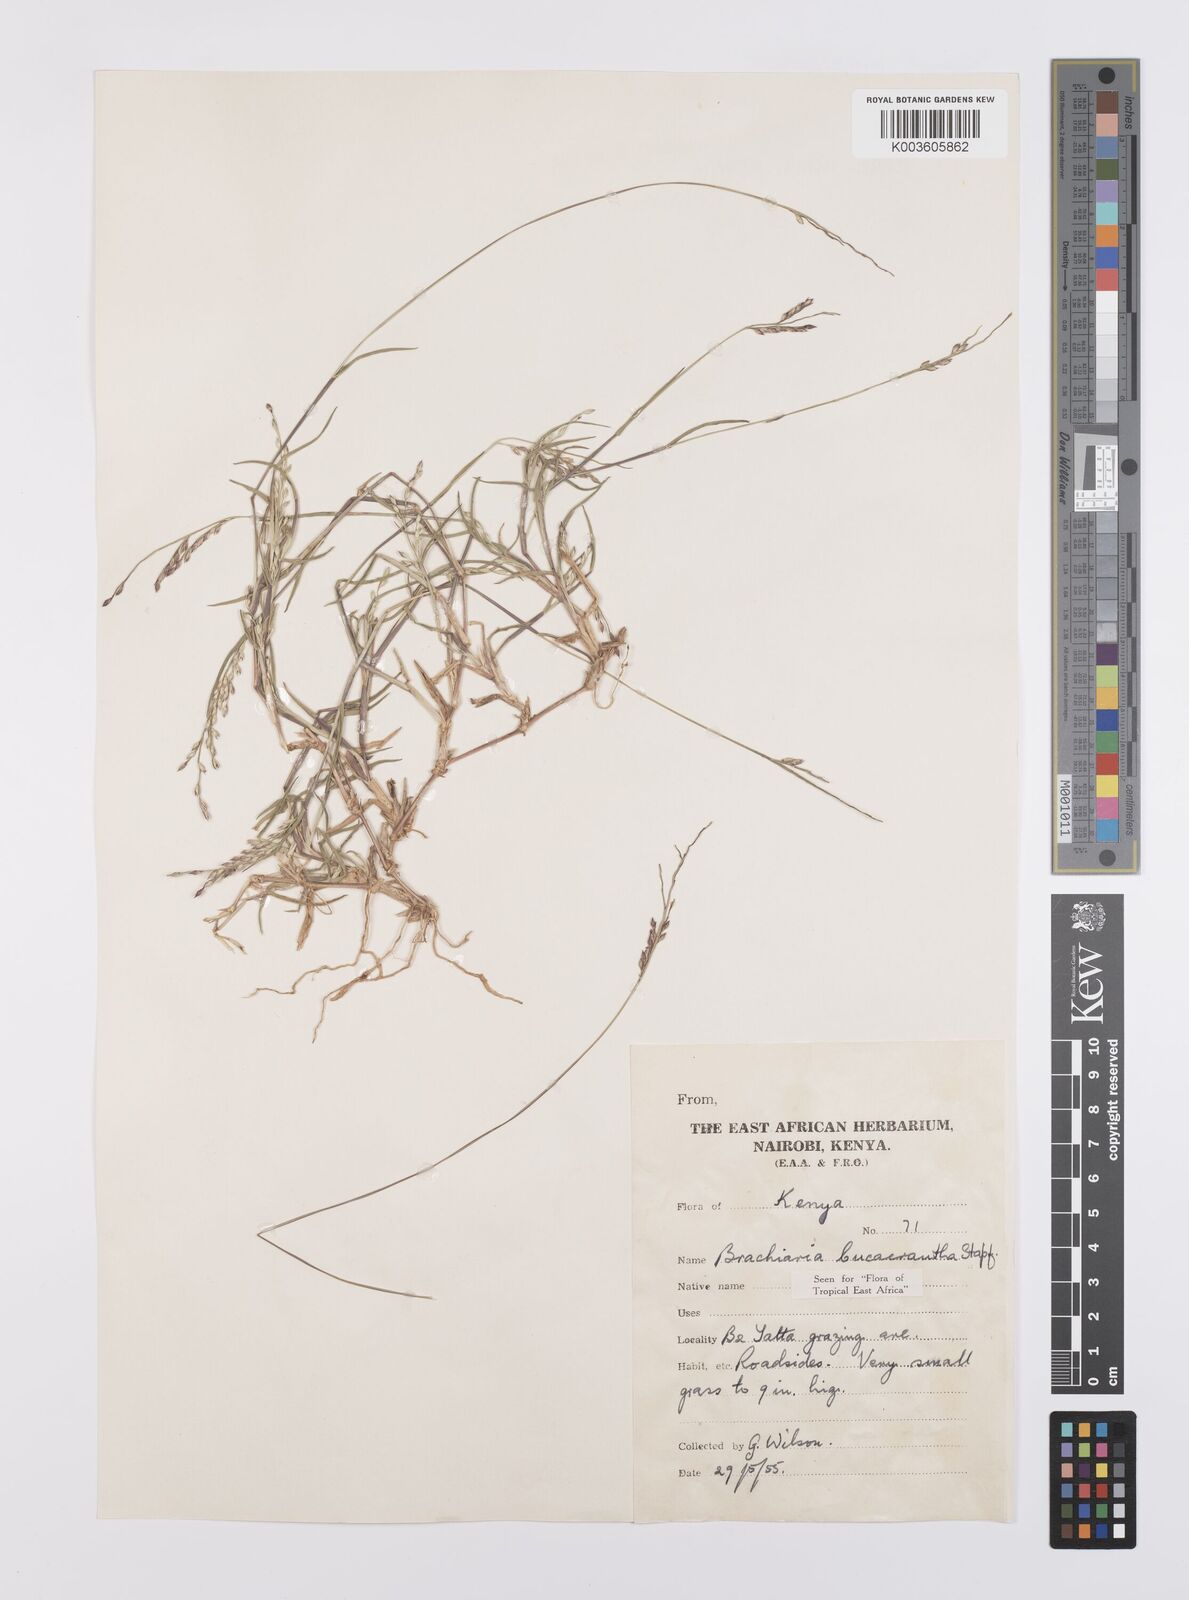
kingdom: Plantae
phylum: Tracheophyta
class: Liliopsida
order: Poales
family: Poaceae
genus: Urochloa
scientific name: Urochloa xantholeuca
